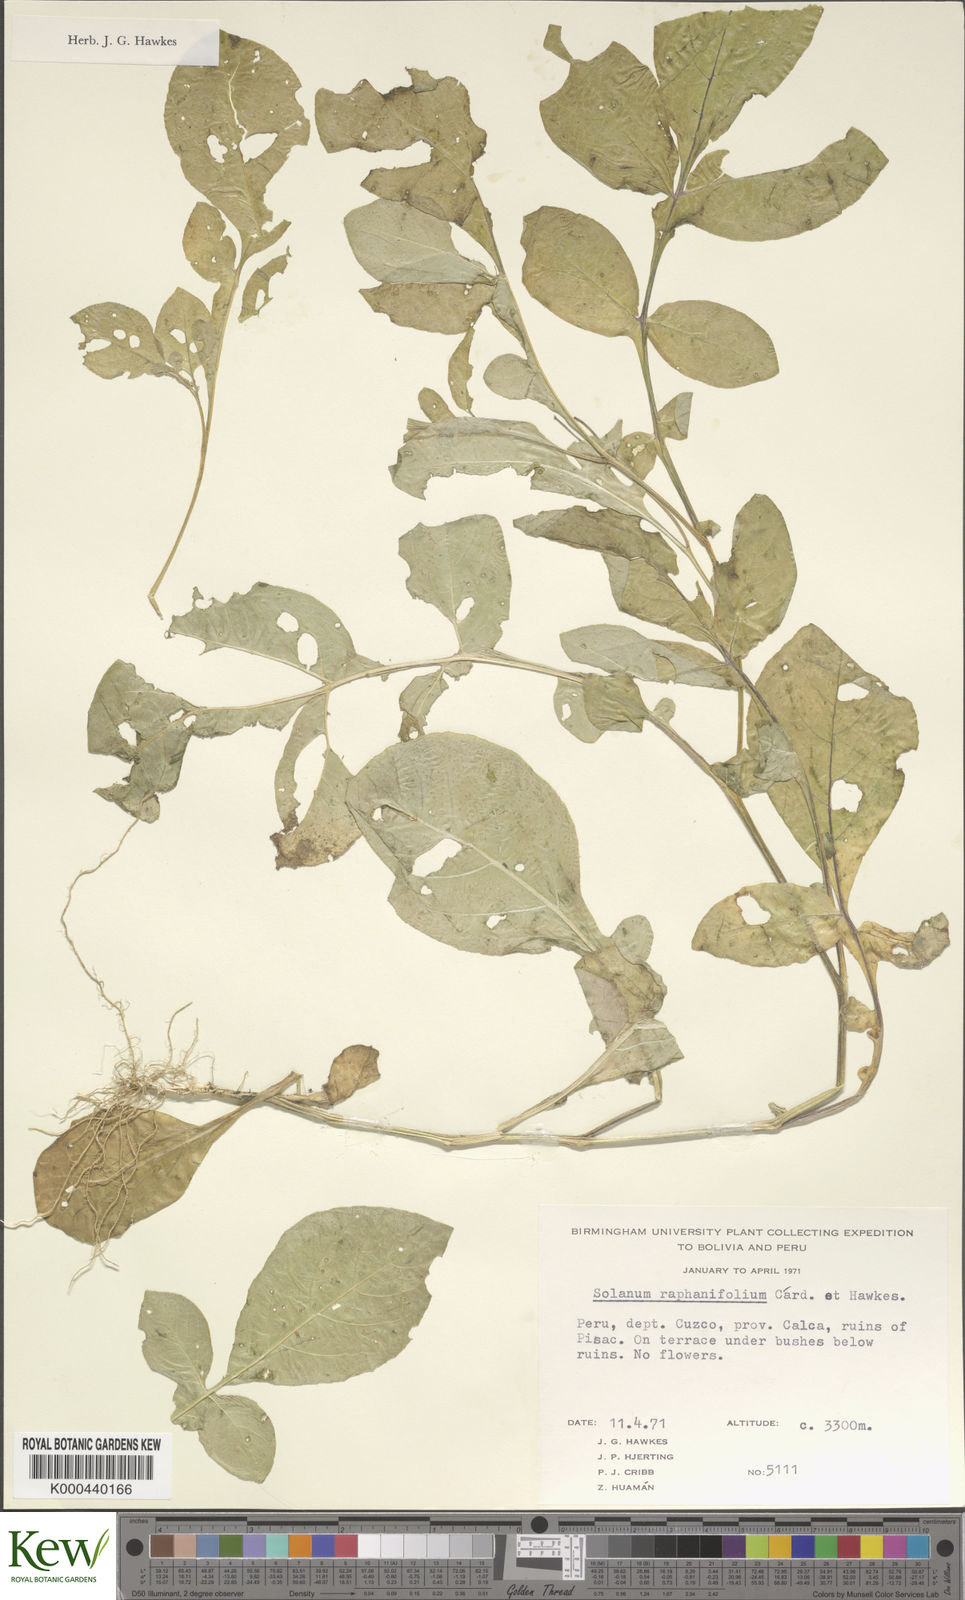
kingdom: Plantae
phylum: Tracheophyta
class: Magnoliopsida
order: Solanales
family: Solanaceae
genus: Solanum
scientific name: Solanum raphanifolium
